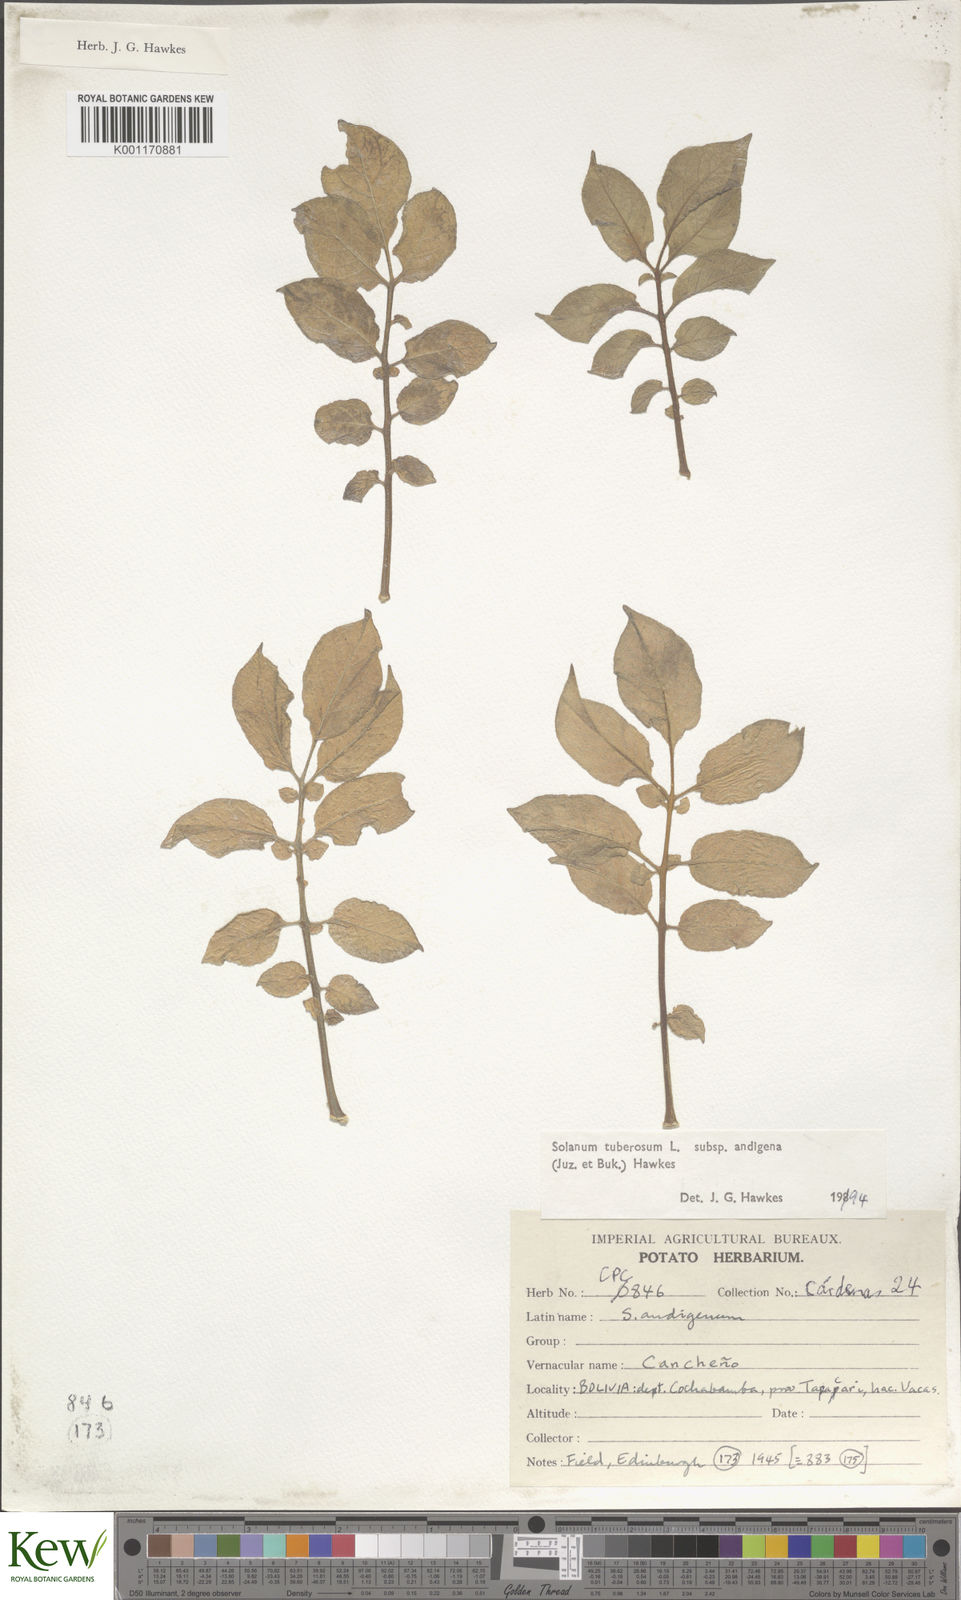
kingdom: Plantae
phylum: Tracheophyta
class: Magnoliopsida
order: Solanales
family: Solanaceae
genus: Solanum
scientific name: Solanum tuberosum
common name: Potato
